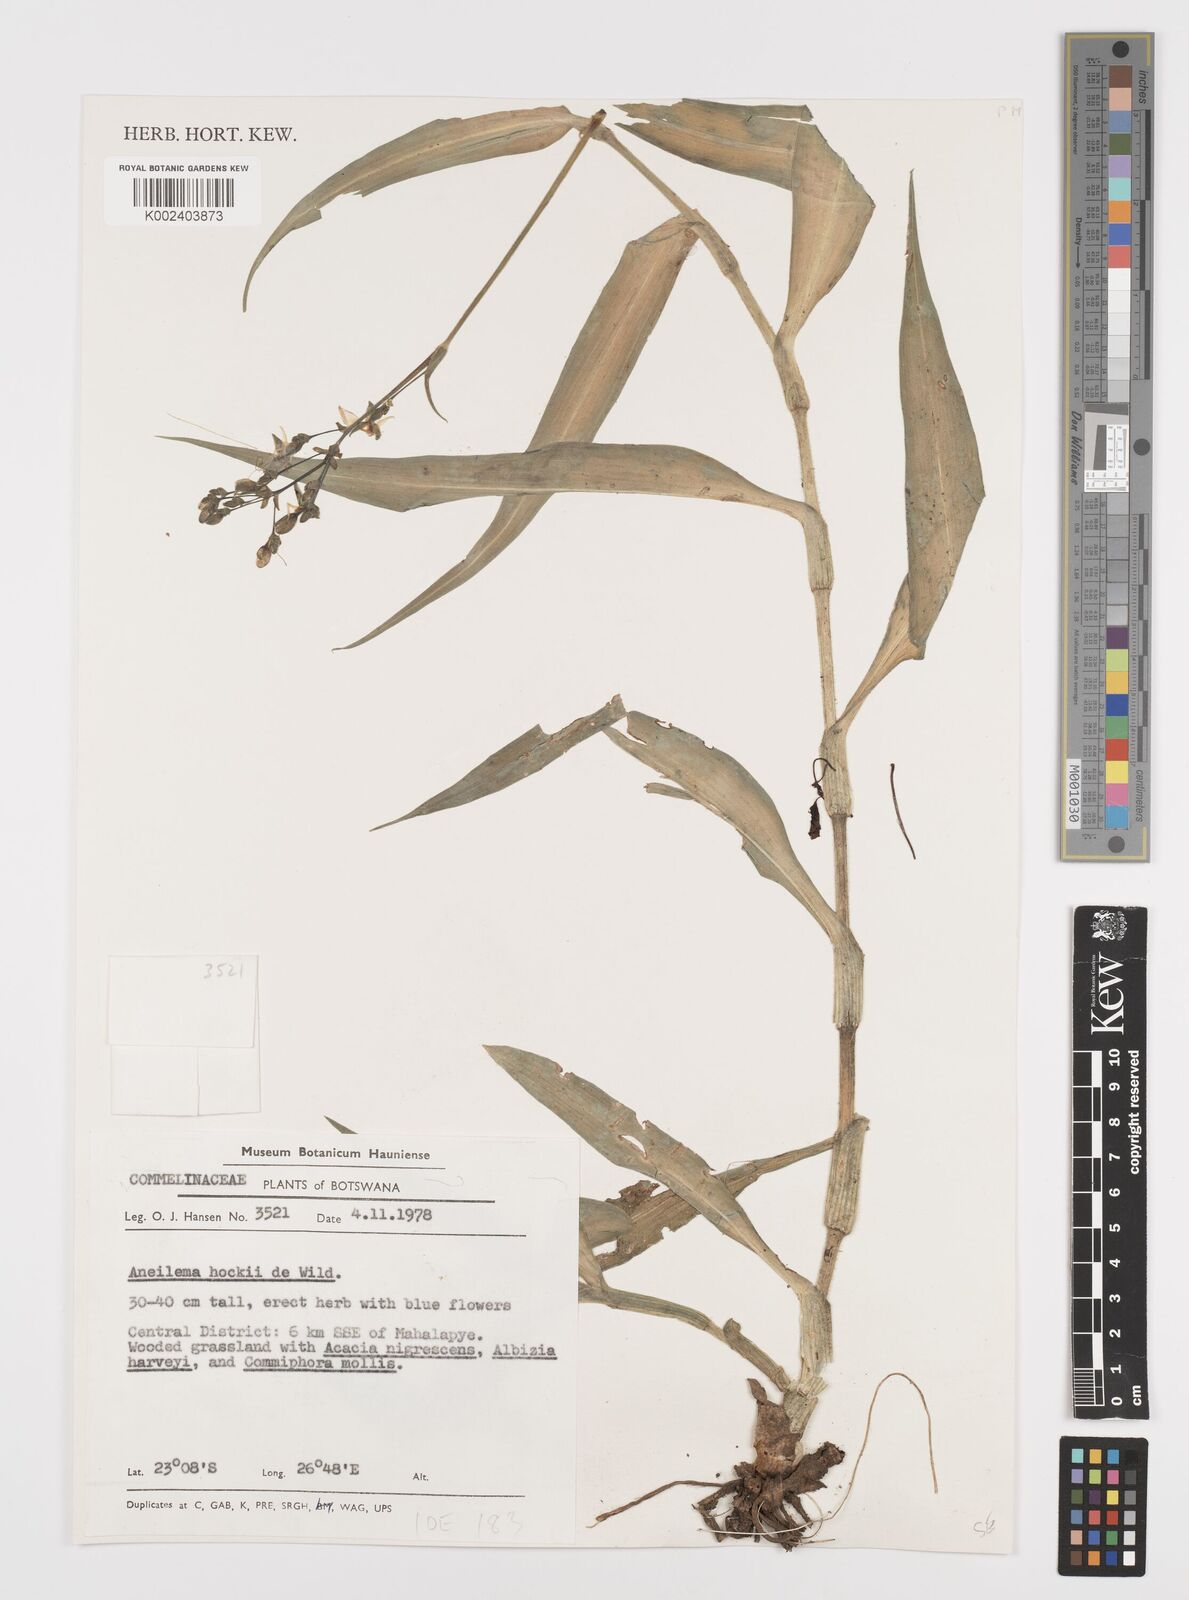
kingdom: Plantae
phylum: Tracheophyta
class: Liliopsida
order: Commelinales
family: Commelinaceae
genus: Aneilema
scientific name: Aneilema hockii
